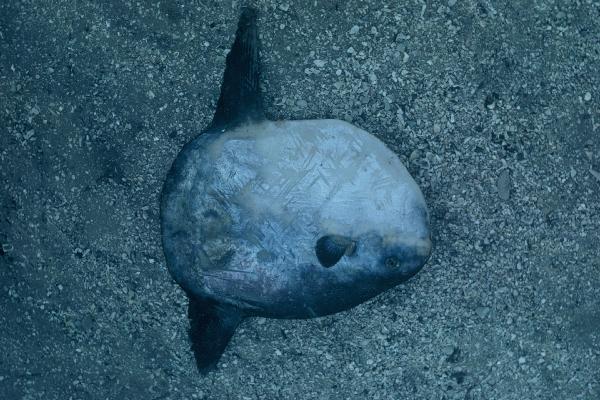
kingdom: Animalia
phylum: Chordata
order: Tetraodontiformes
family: Molidae
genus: Mola
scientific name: Mola mola
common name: Ocean sunfish
